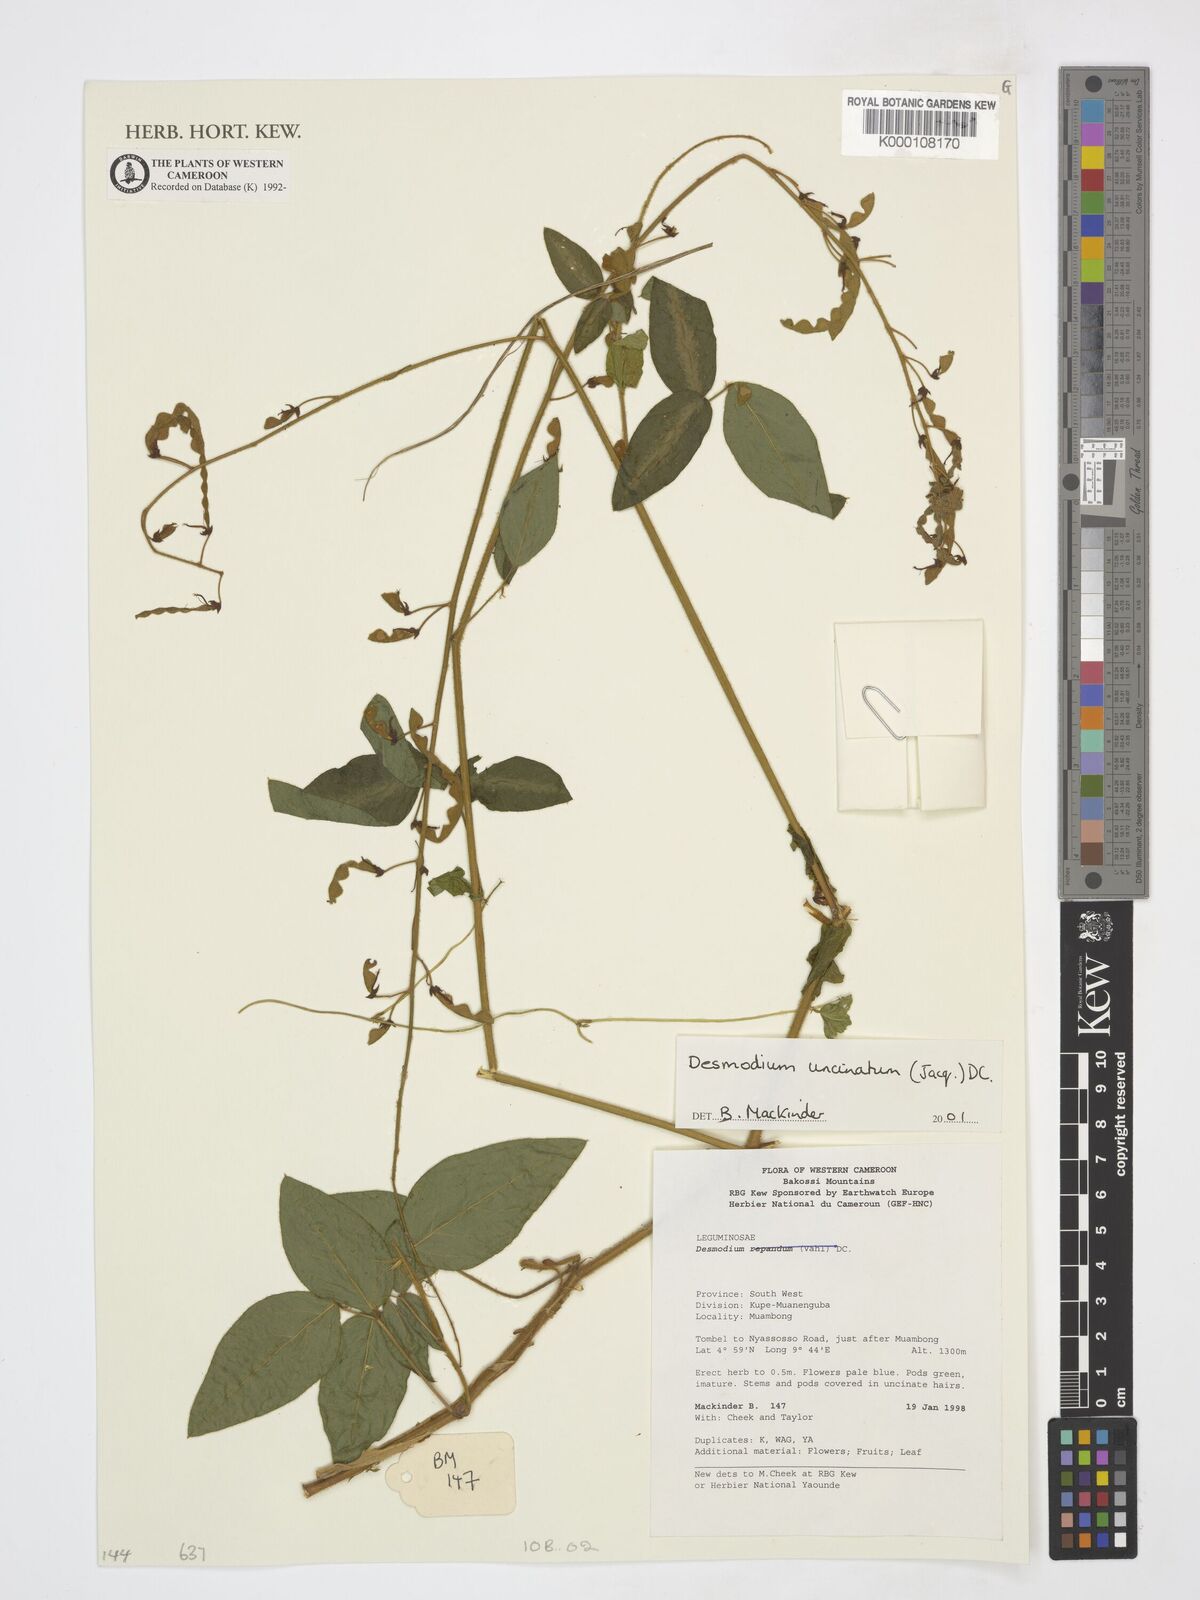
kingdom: Plantae
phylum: Tracheophyta
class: Magnoliopsida
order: Fabales
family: Fabaceae
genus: Desmodium
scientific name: Desmodium uncinatum
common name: Silverleaf desmodium
